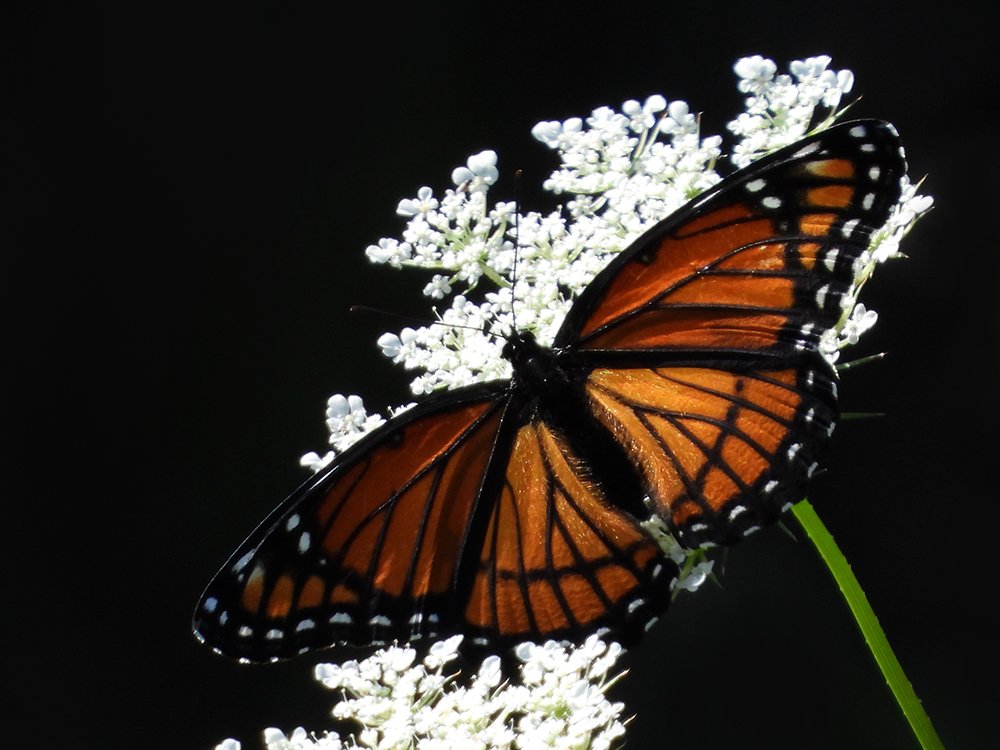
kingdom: Animalia
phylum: Arthropoda
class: Insecta
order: Lepidoptera
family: Nymphalidae
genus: Limenitis
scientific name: Limenitis archippus
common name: Viceroy
